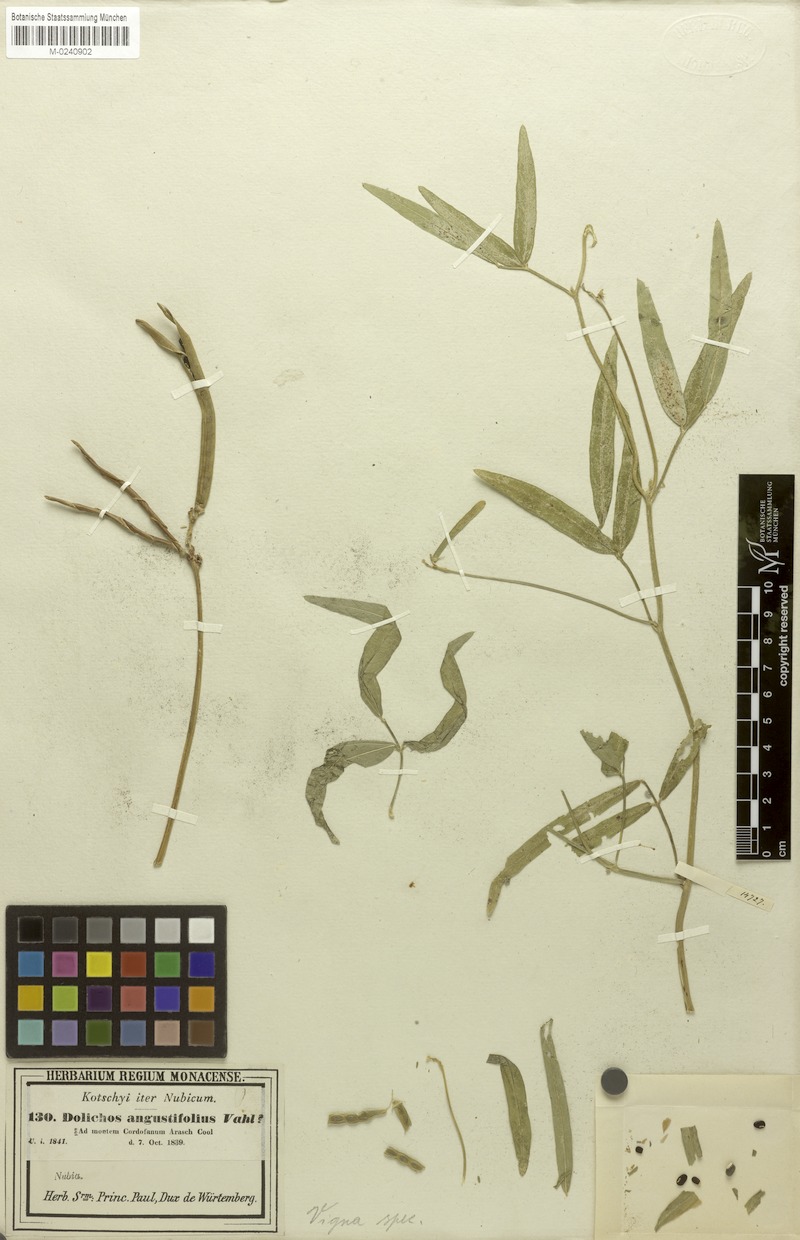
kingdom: Plantae
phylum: Tracheophyta
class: Magnoliopsida
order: Fabales
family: Fabaceae
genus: Vigna
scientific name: Vigna unguiculata
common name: Cowpea
